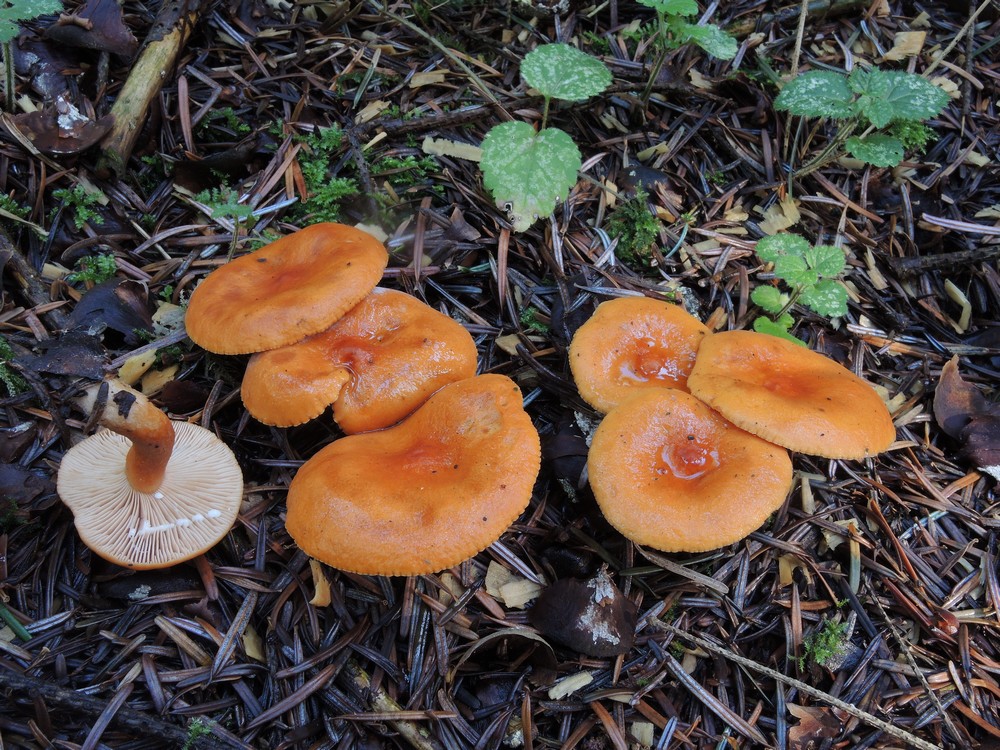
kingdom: Fungi
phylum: Basidiomycota
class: Agaricomycetes
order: Russulales
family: Russulaceae
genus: Lactarius
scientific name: Lactarius aurantiacus
